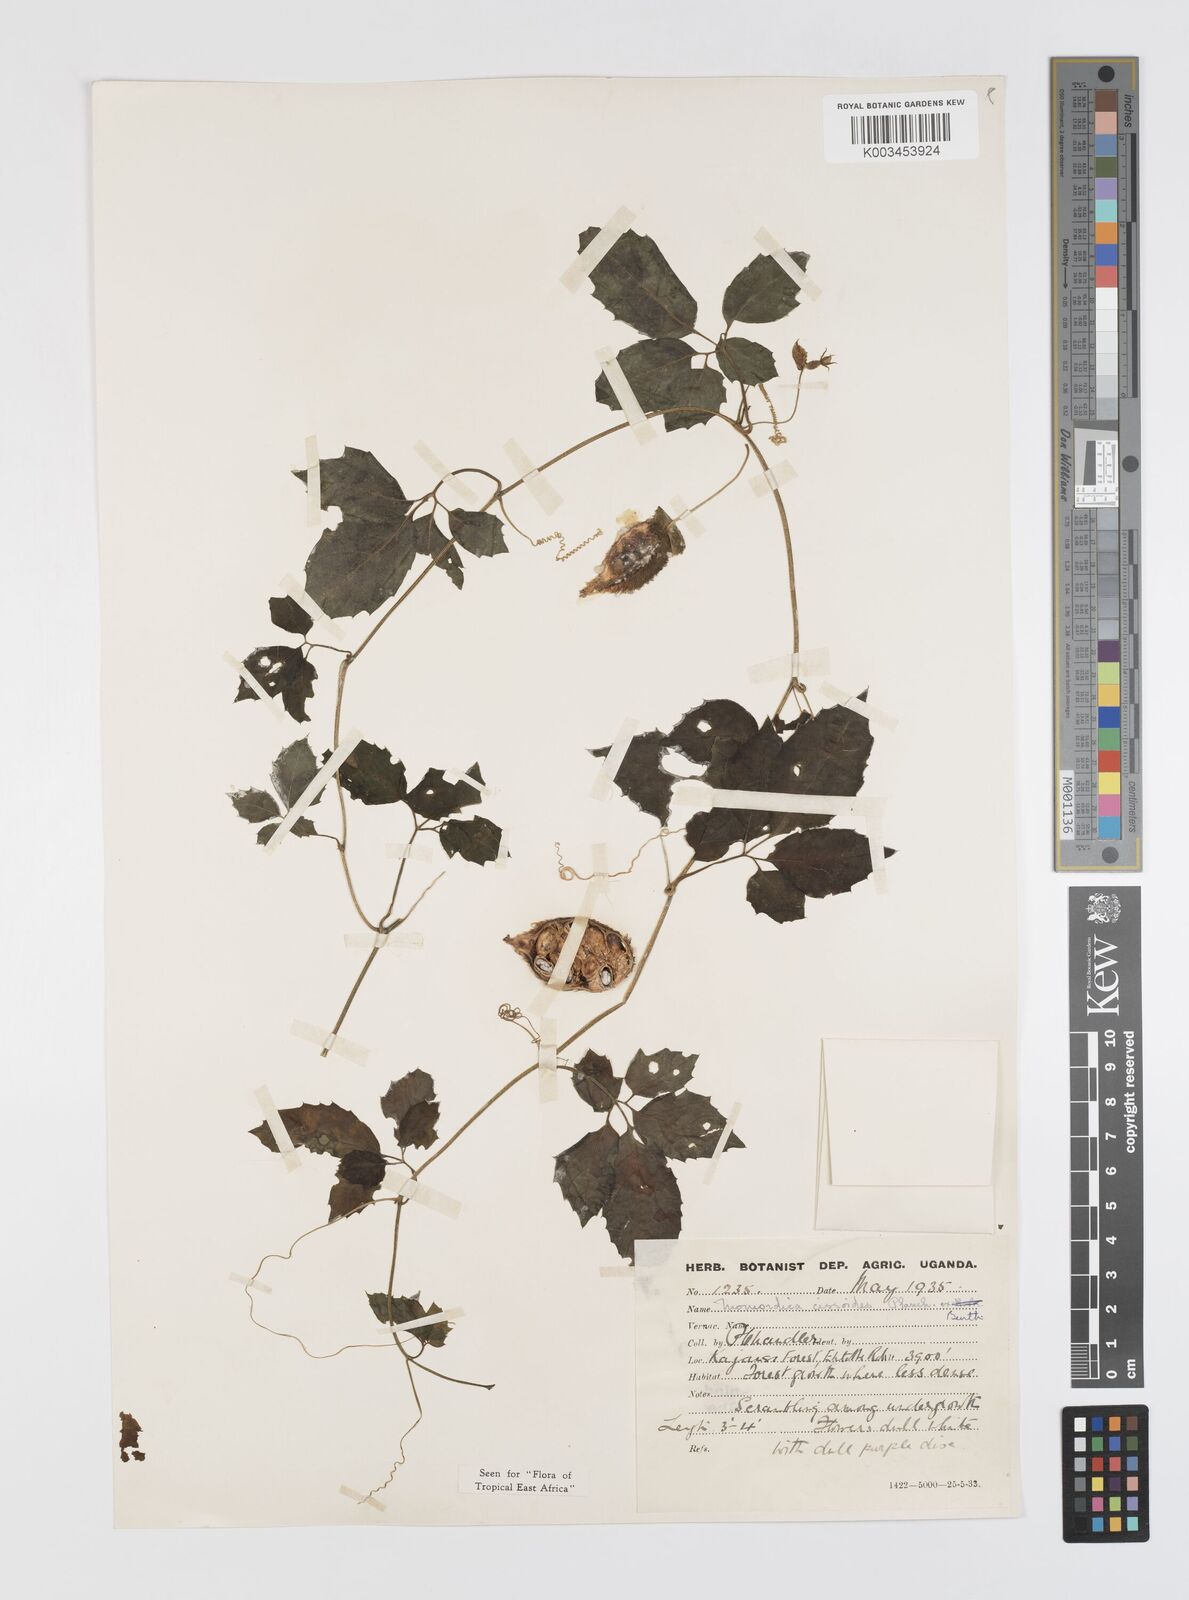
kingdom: Plantae
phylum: Tracheophyta
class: Magnoliopsida
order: Cucurbitales
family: Cucurbitaceae
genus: Momordica
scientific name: Momordica cissoides
